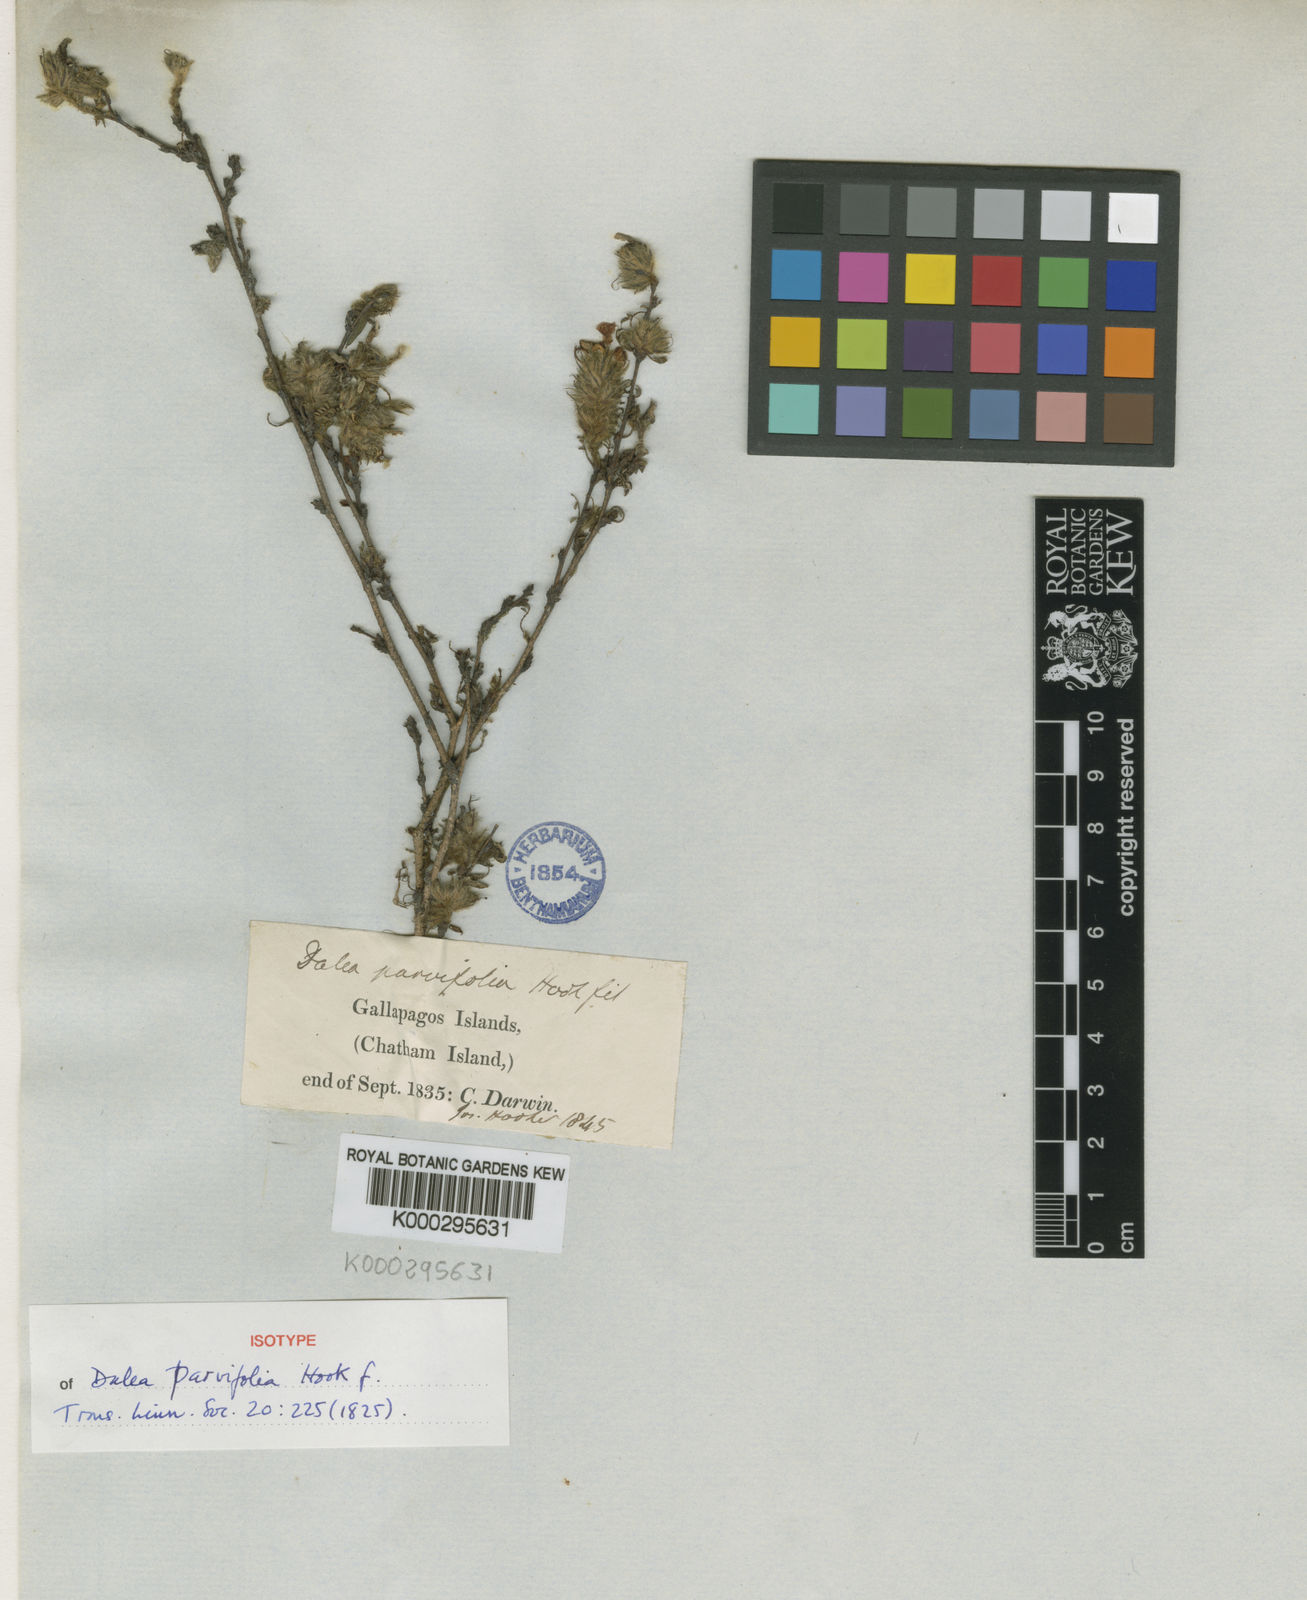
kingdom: Plantae
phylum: Tracheophyta
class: Magnoliopsida
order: Fabales
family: Fabaceae
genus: Dalea
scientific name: Dalea tenuicaulis
